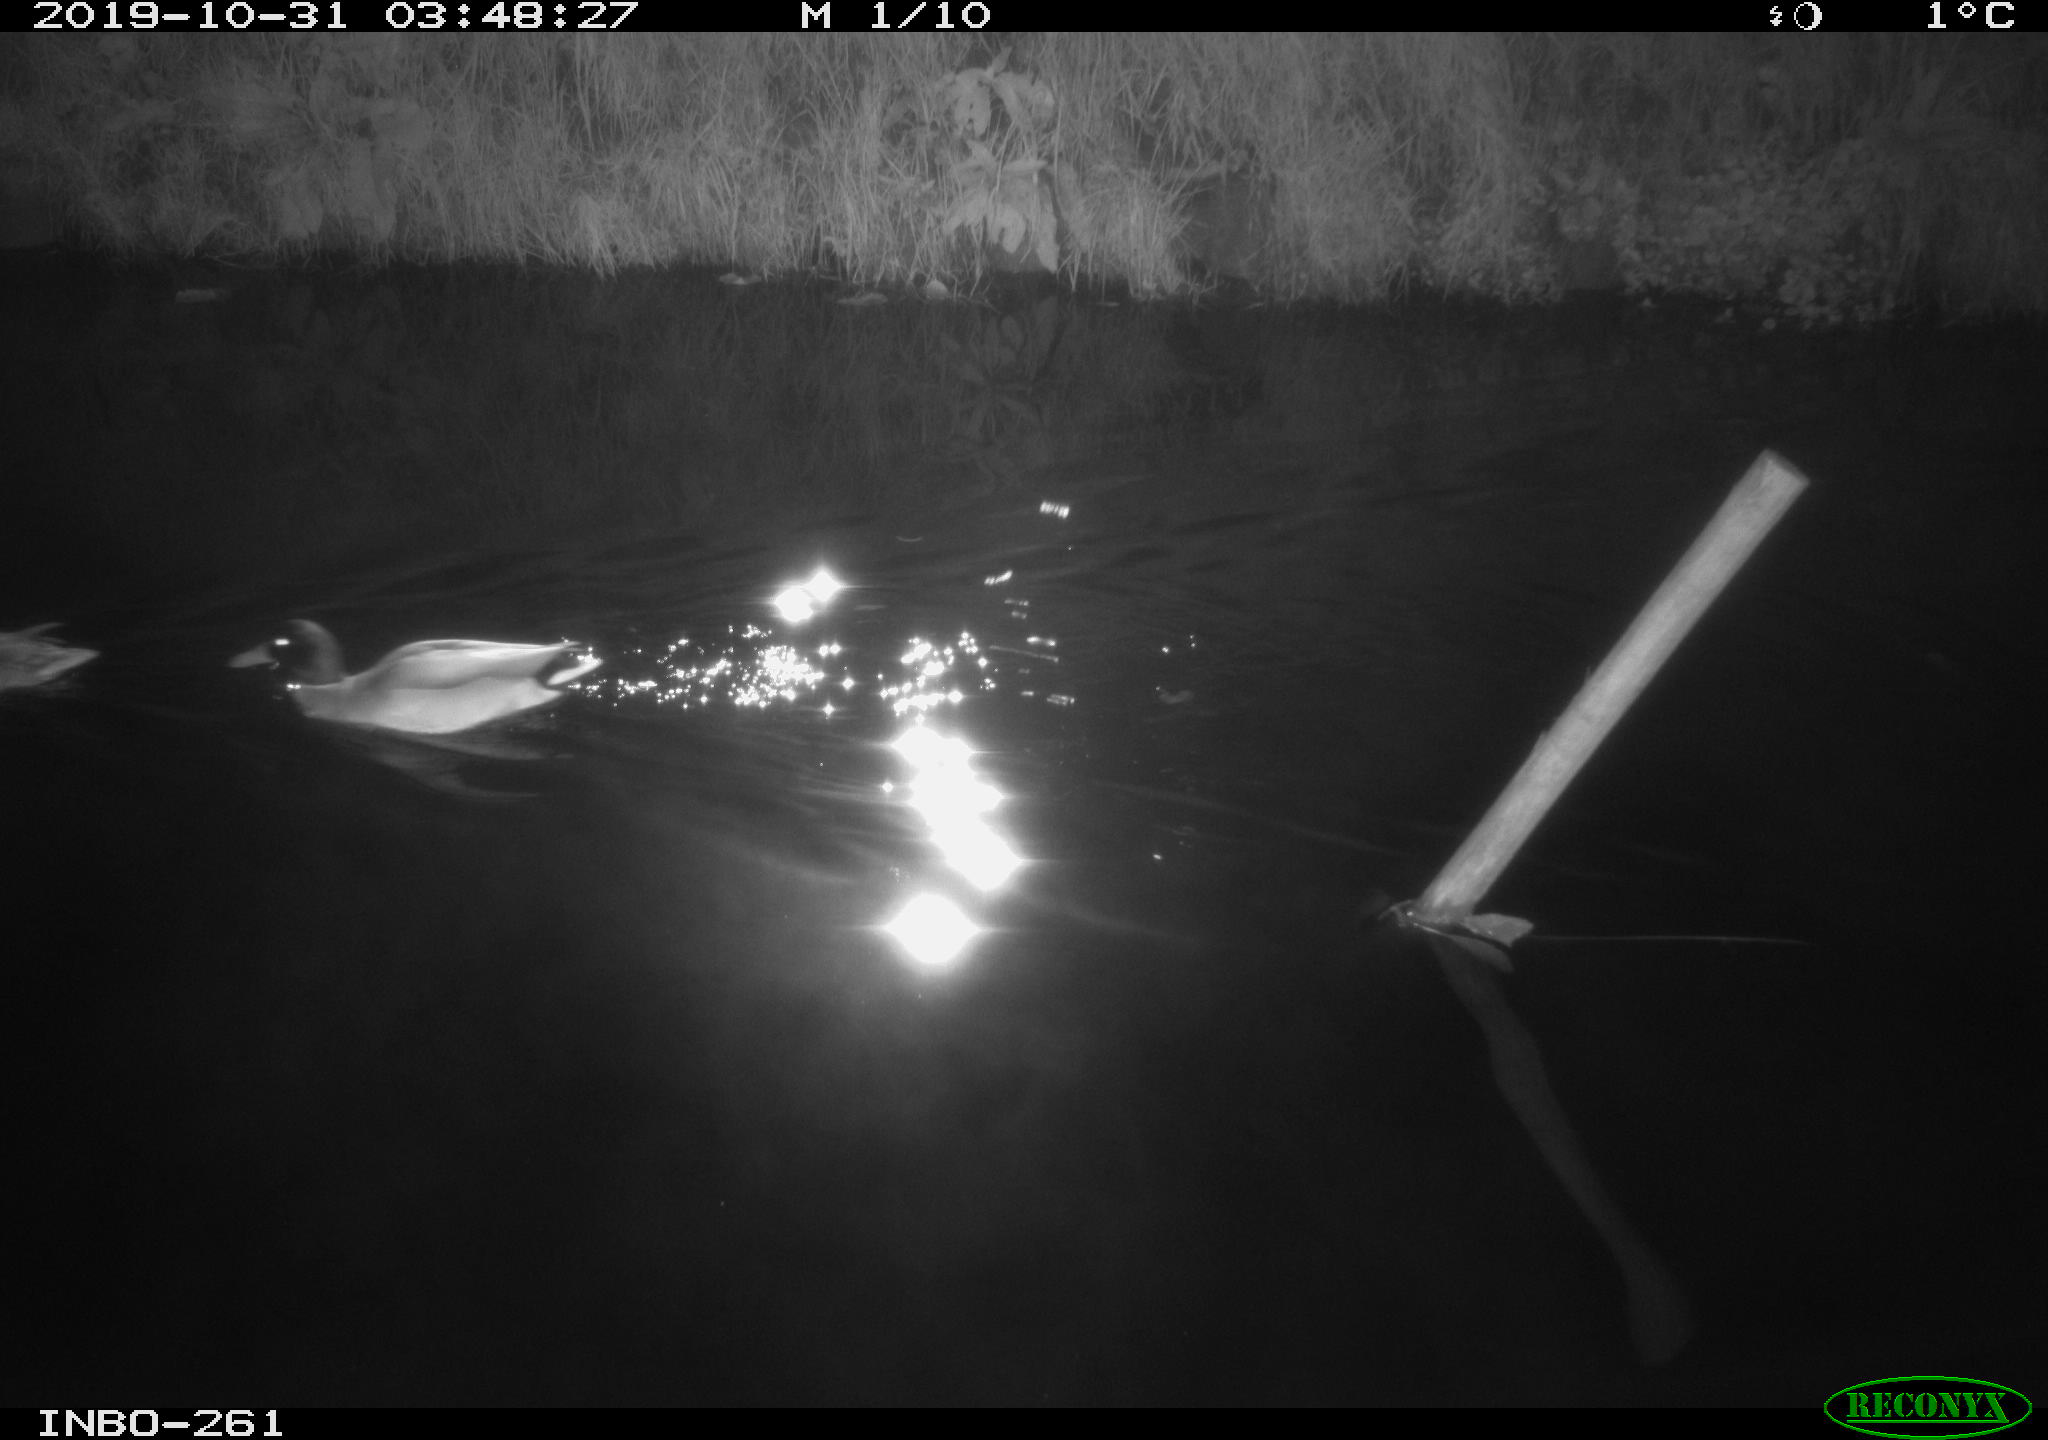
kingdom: Animalia
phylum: Chordata
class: Aves
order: Anseriformes
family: Anatidae
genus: Anas
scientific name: Anas platyrhynchos
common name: Mallard
